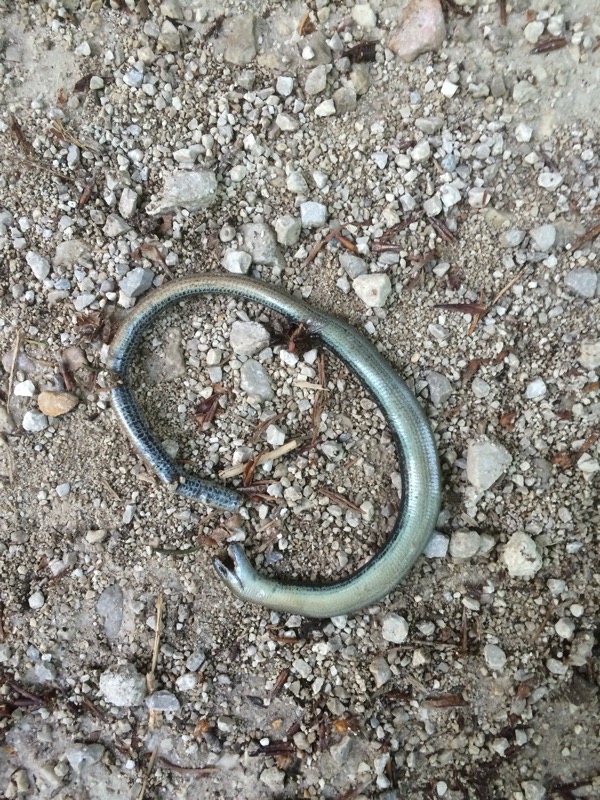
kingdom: Animalia
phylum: Chordata
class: Squamata
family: Anguidae
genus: Anguis
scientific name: Anguis fragilis
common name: Slow worm
